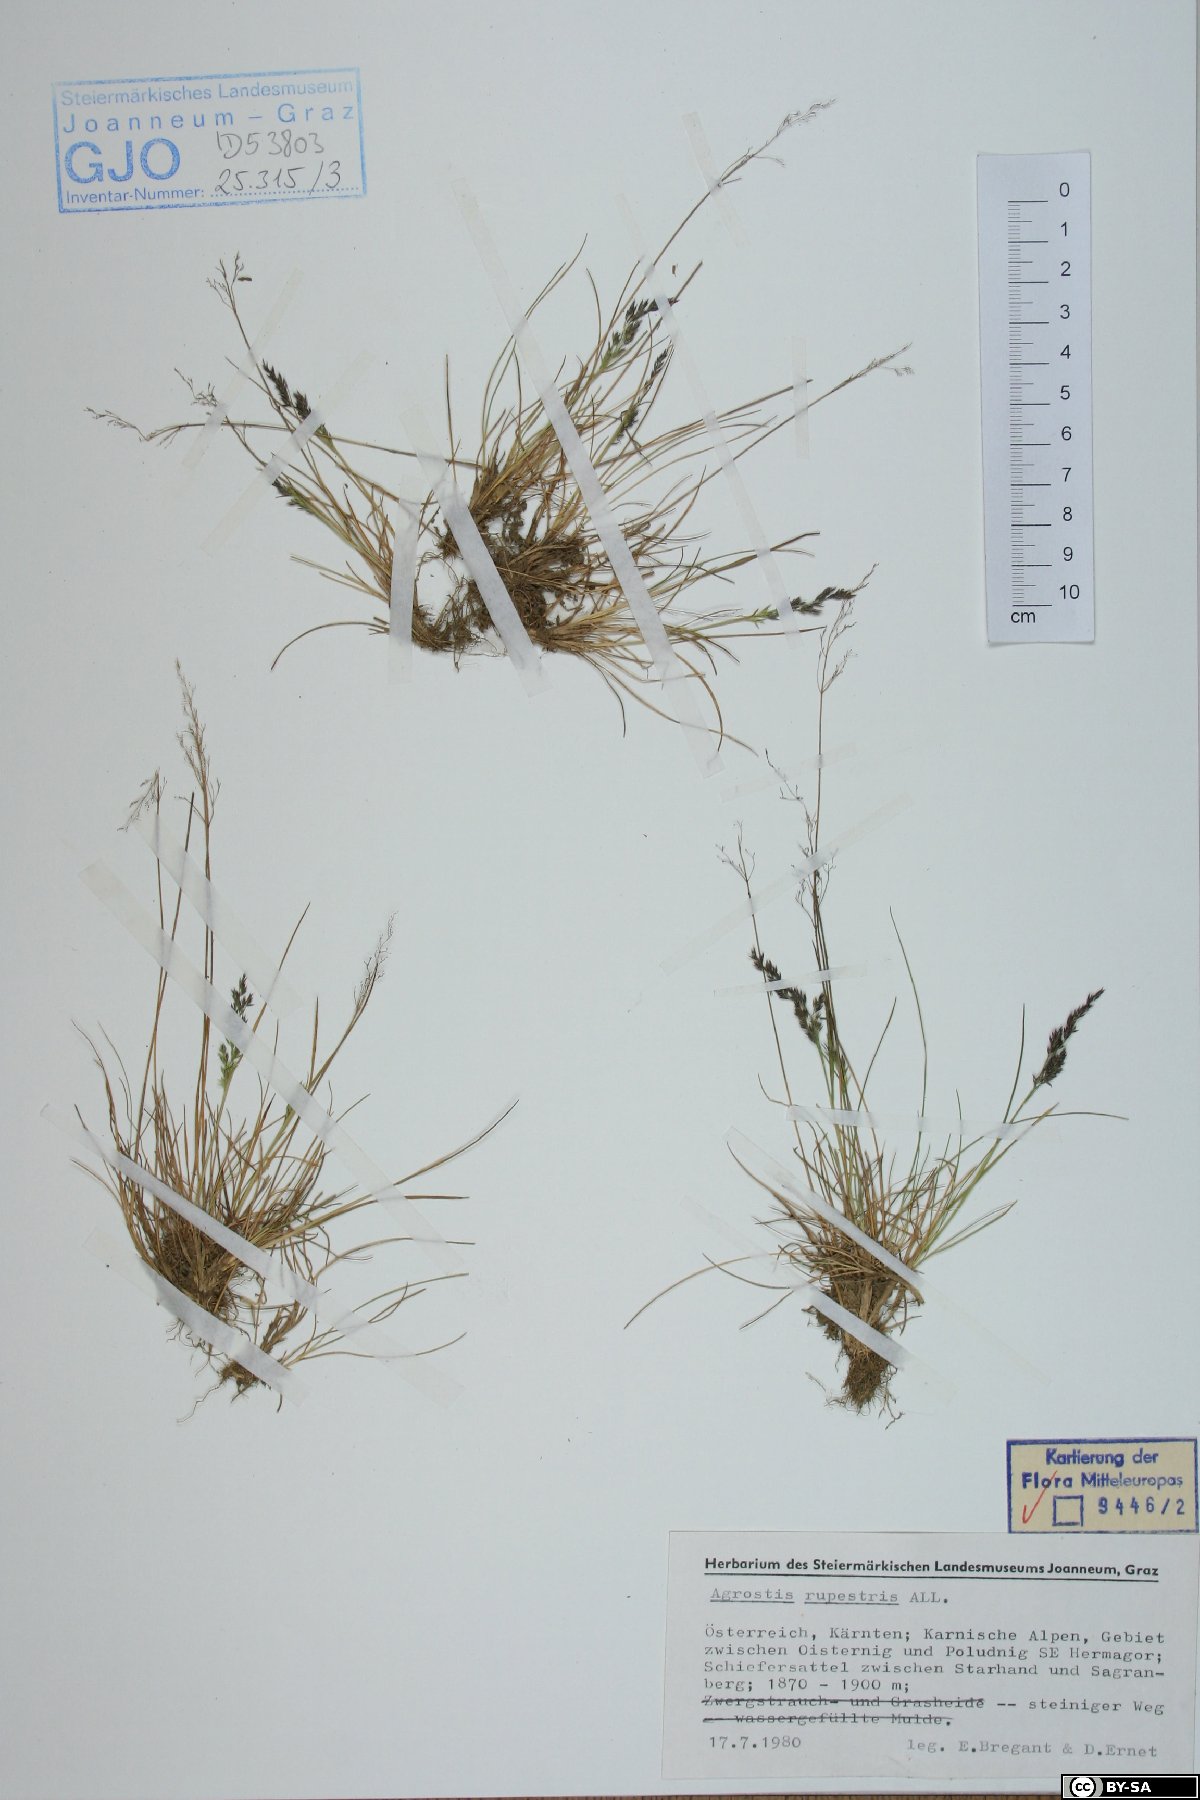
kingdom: Plantae
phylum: Tracheophyta
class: Liliopsida
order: Poales
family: Poaceae
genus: Agrostis
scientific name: Agrostis rupestris
